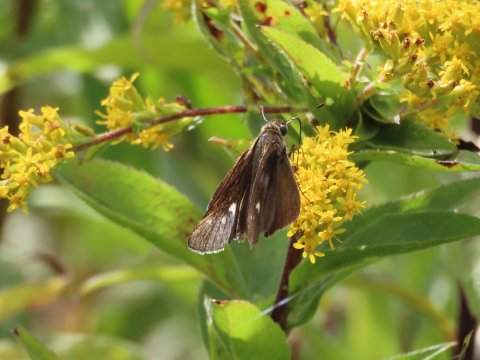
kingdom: Animalia
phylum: Arthropoda
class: Insecta
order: Lepidoptera
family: Hesperiidae
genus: Panoquina
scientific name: Panoquina ocola
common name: Ocola Skipper
